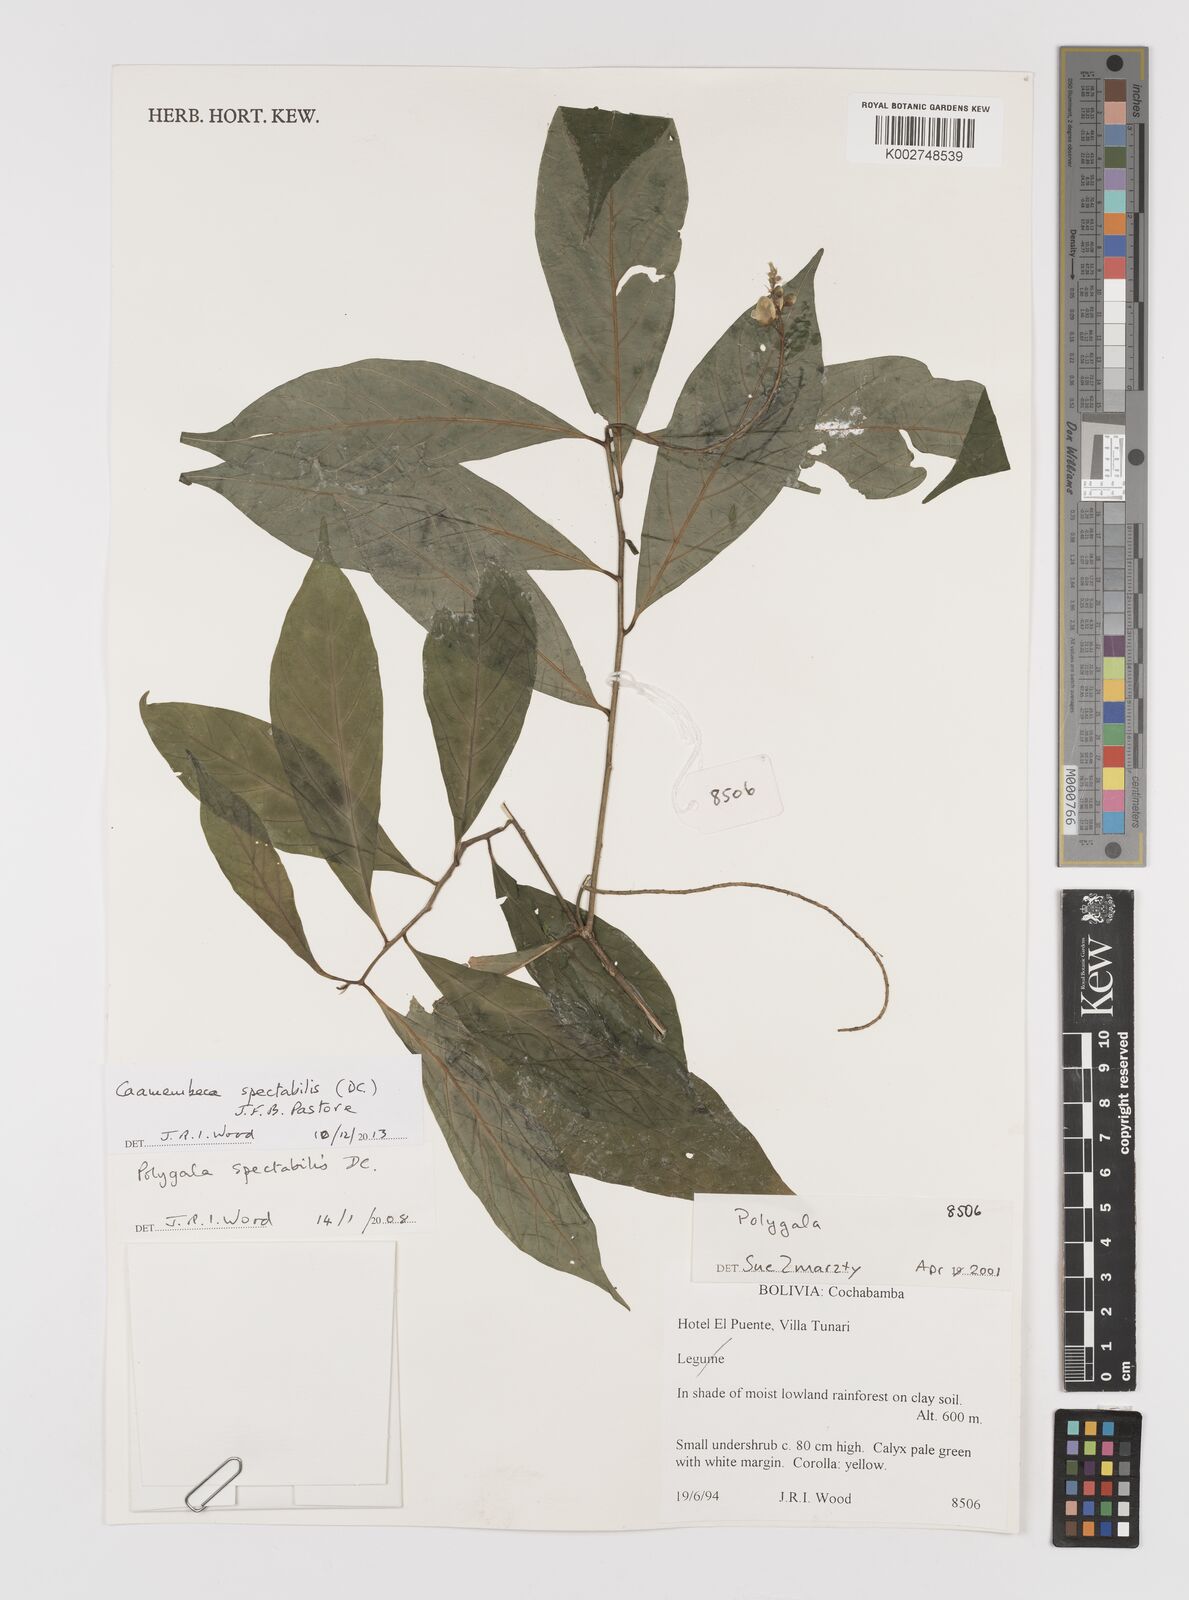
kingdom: Plantae
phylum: Tracheophyta
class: Magnoliopsida
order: Fabales
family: Polygalaceae
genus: Caamembeca
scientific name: Caamembeca spectabilis
